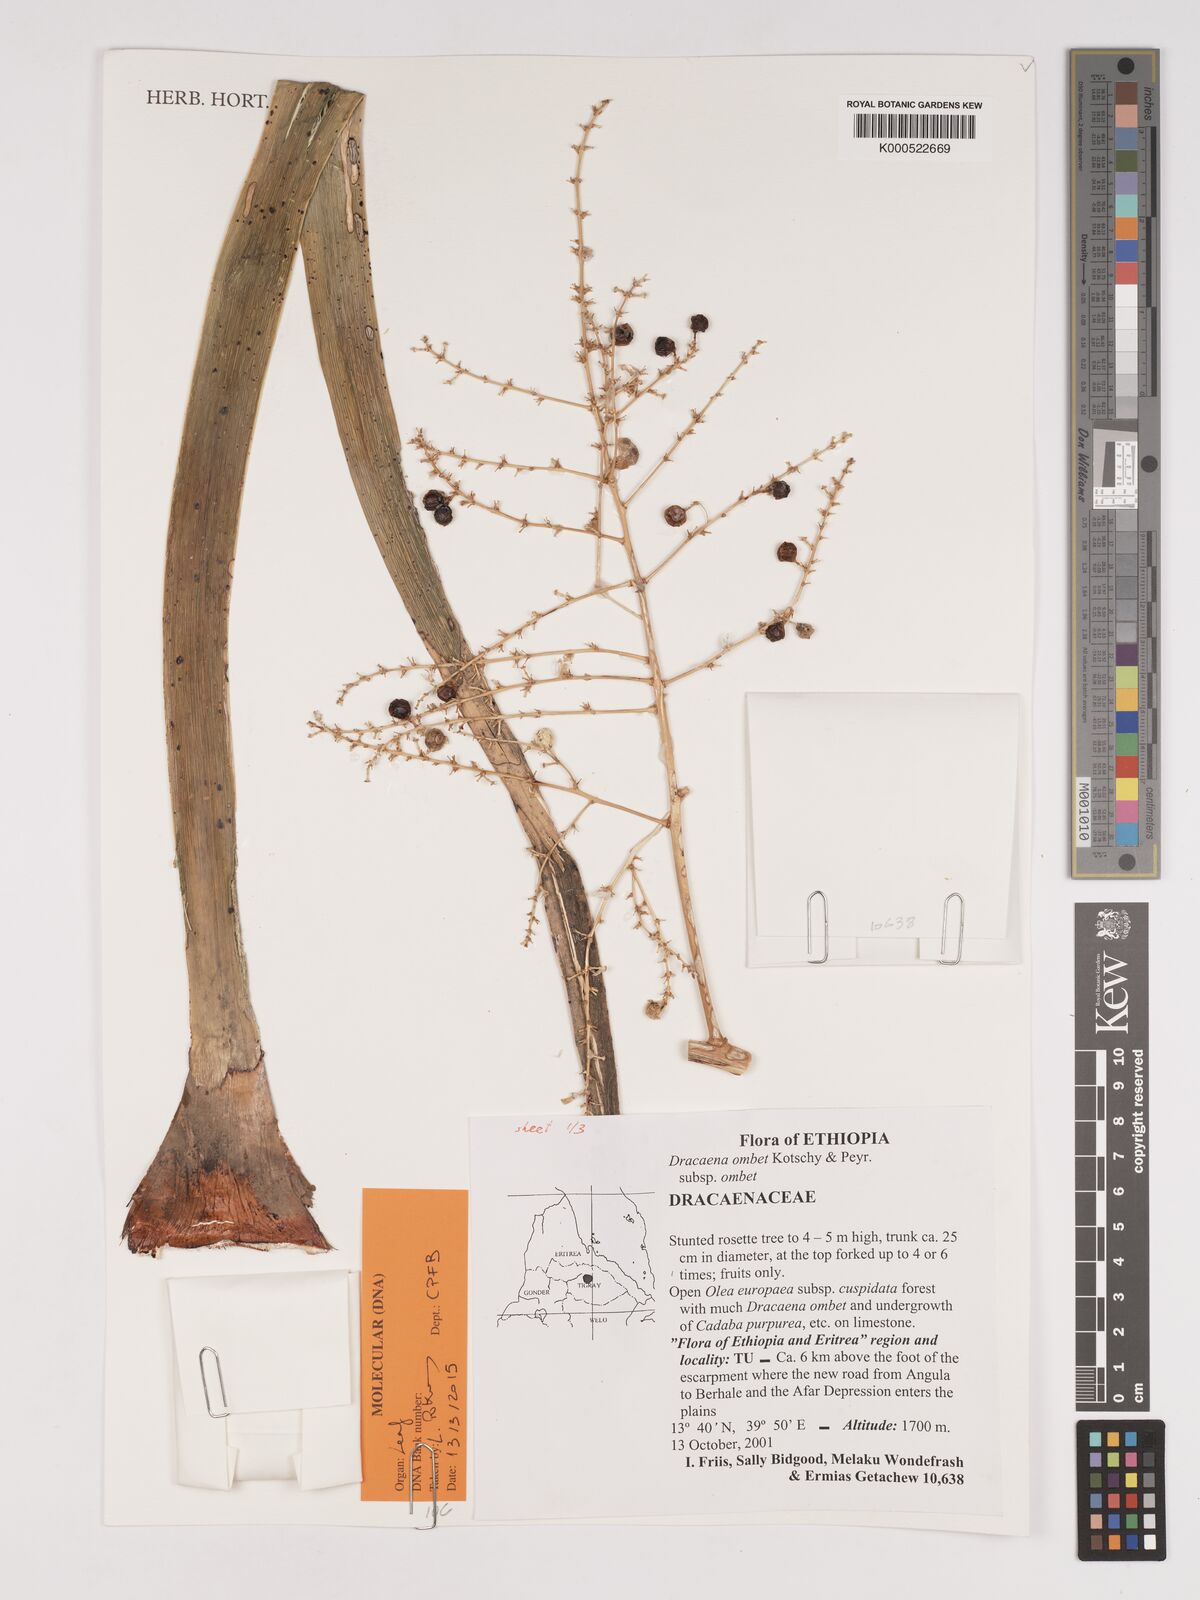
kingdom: Plantae
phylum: Tracheophyta
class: Liliopsida
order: Asparagales
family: Asparagaceae
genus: Dracaena
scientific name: Dracaena ombet
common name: Gabal elba dragon tree
